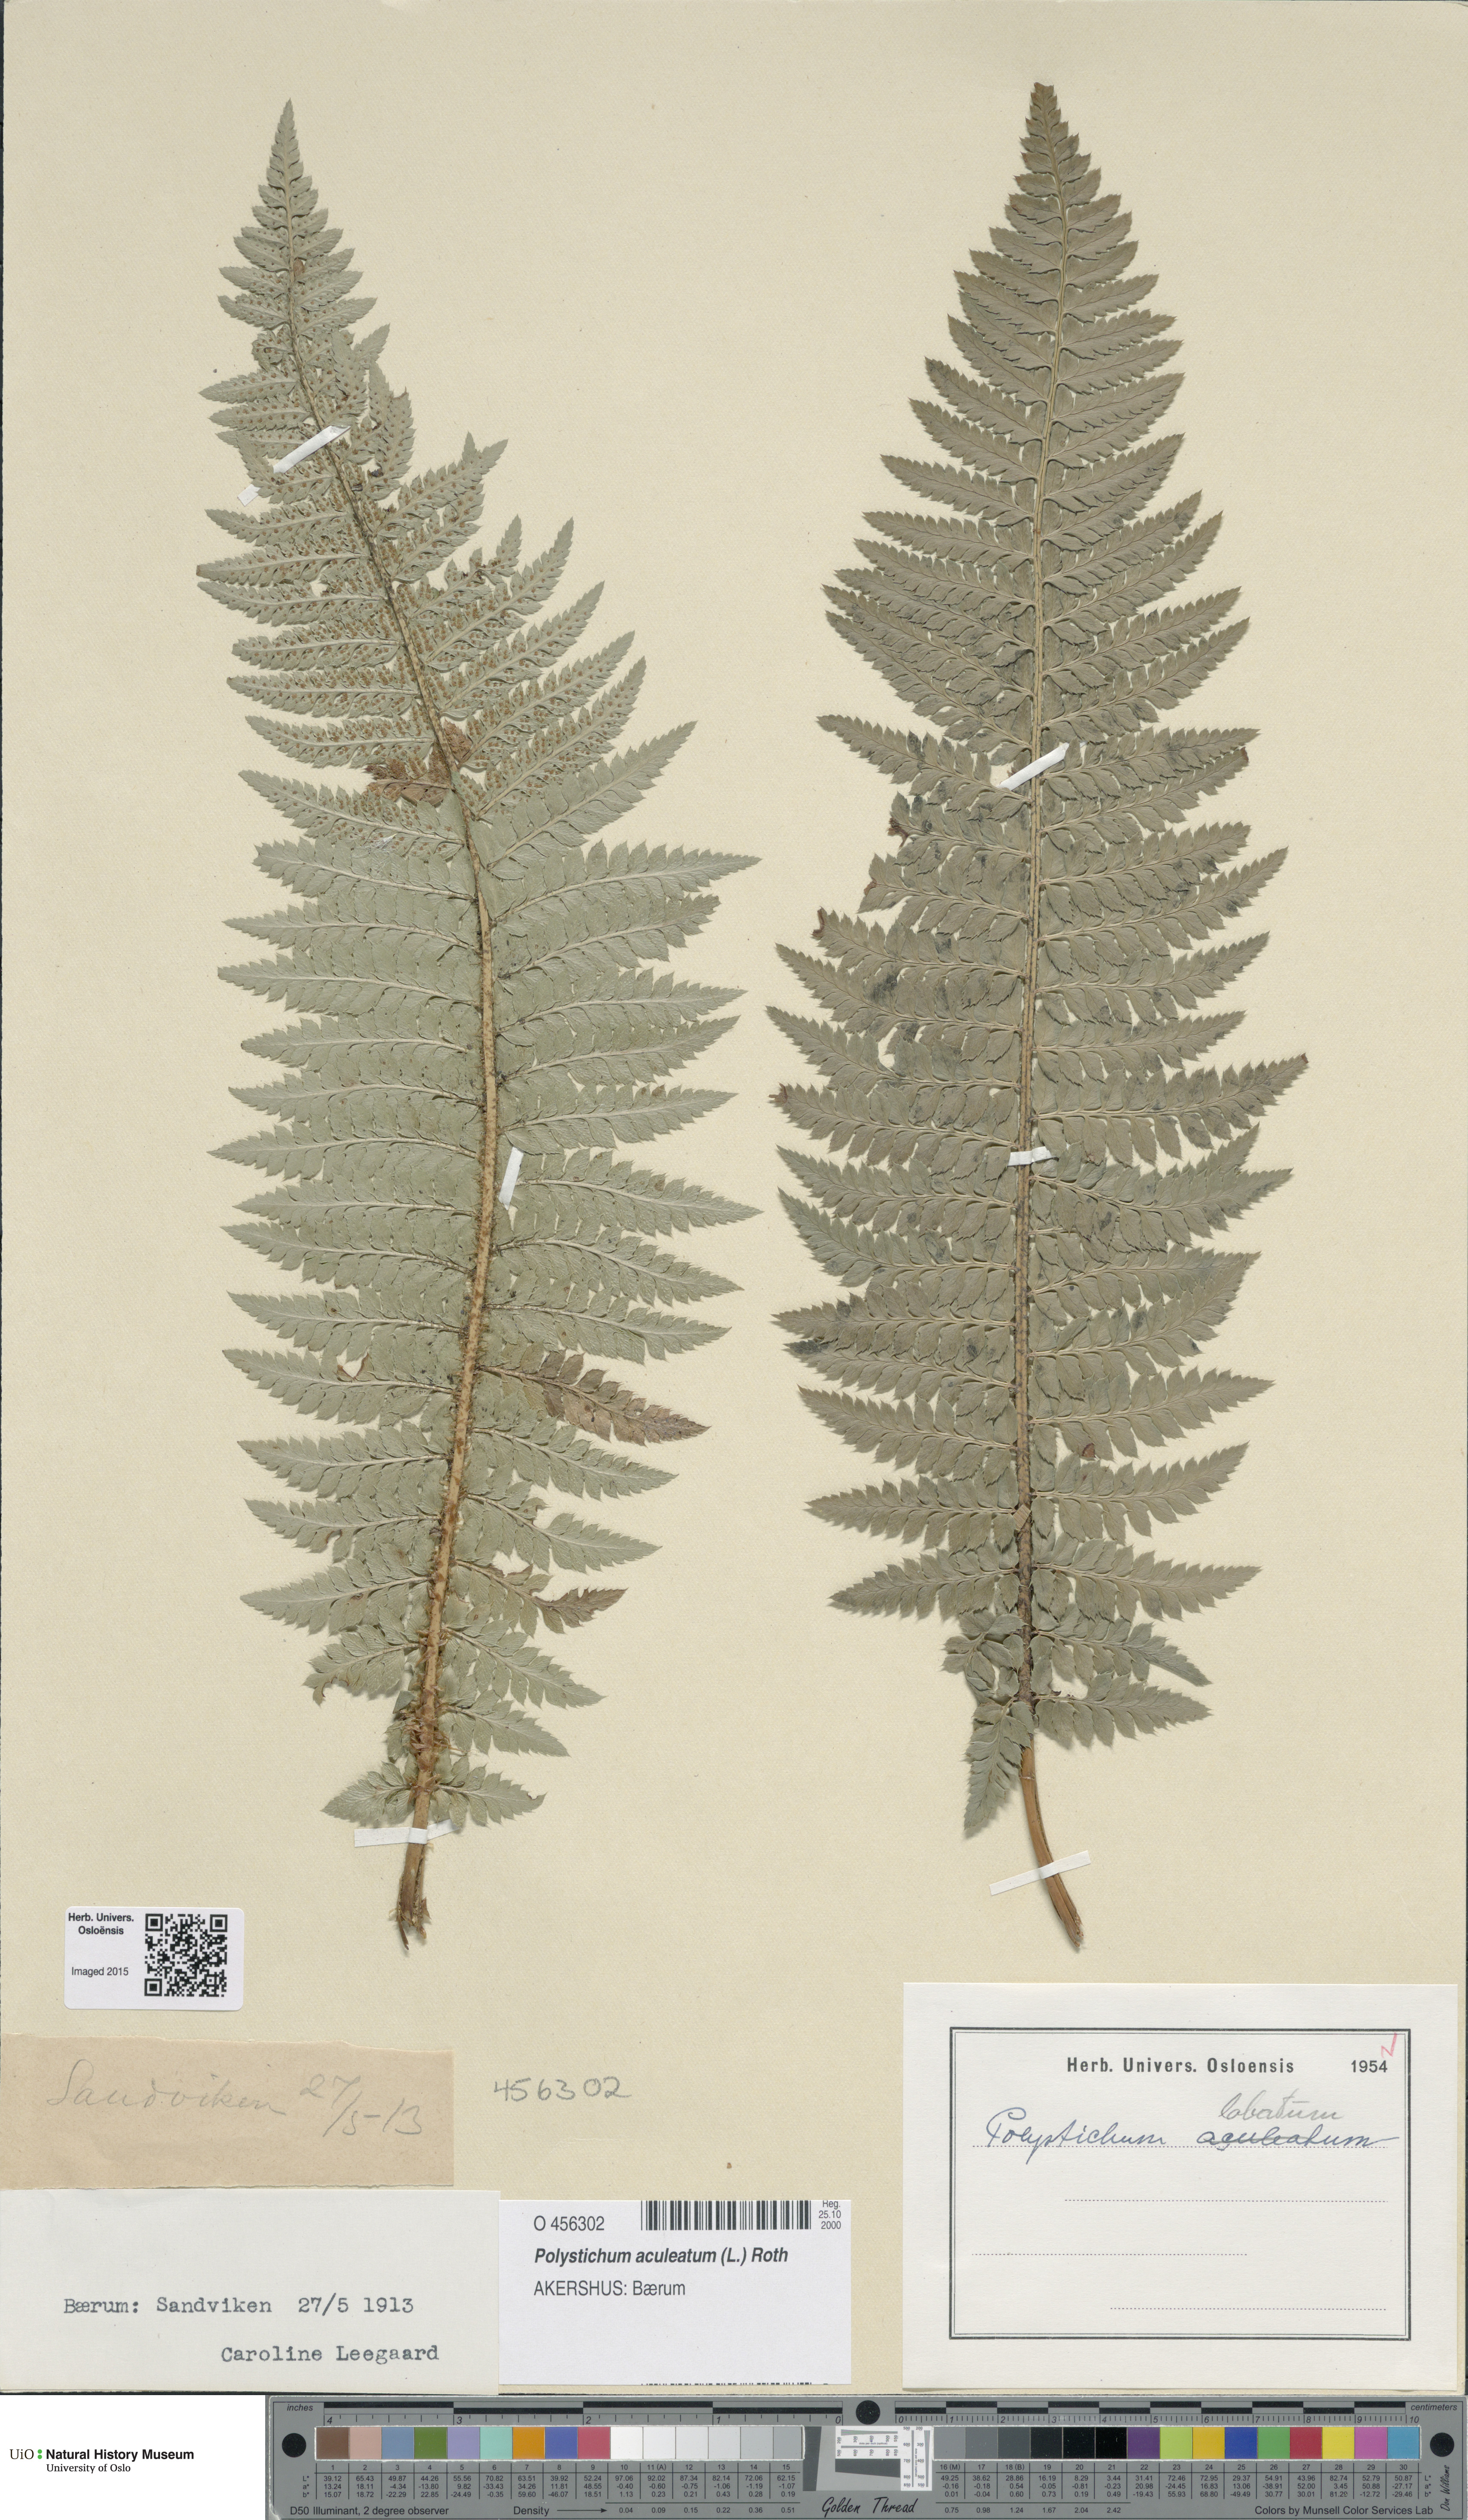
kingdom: Plantae
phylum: Tracheophyta
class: Polypodiopsida
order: Polypodiales
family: Dryopteridaceae
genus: Polystichum
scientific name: Polystichum aculeatum
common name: Hard shield-fern
